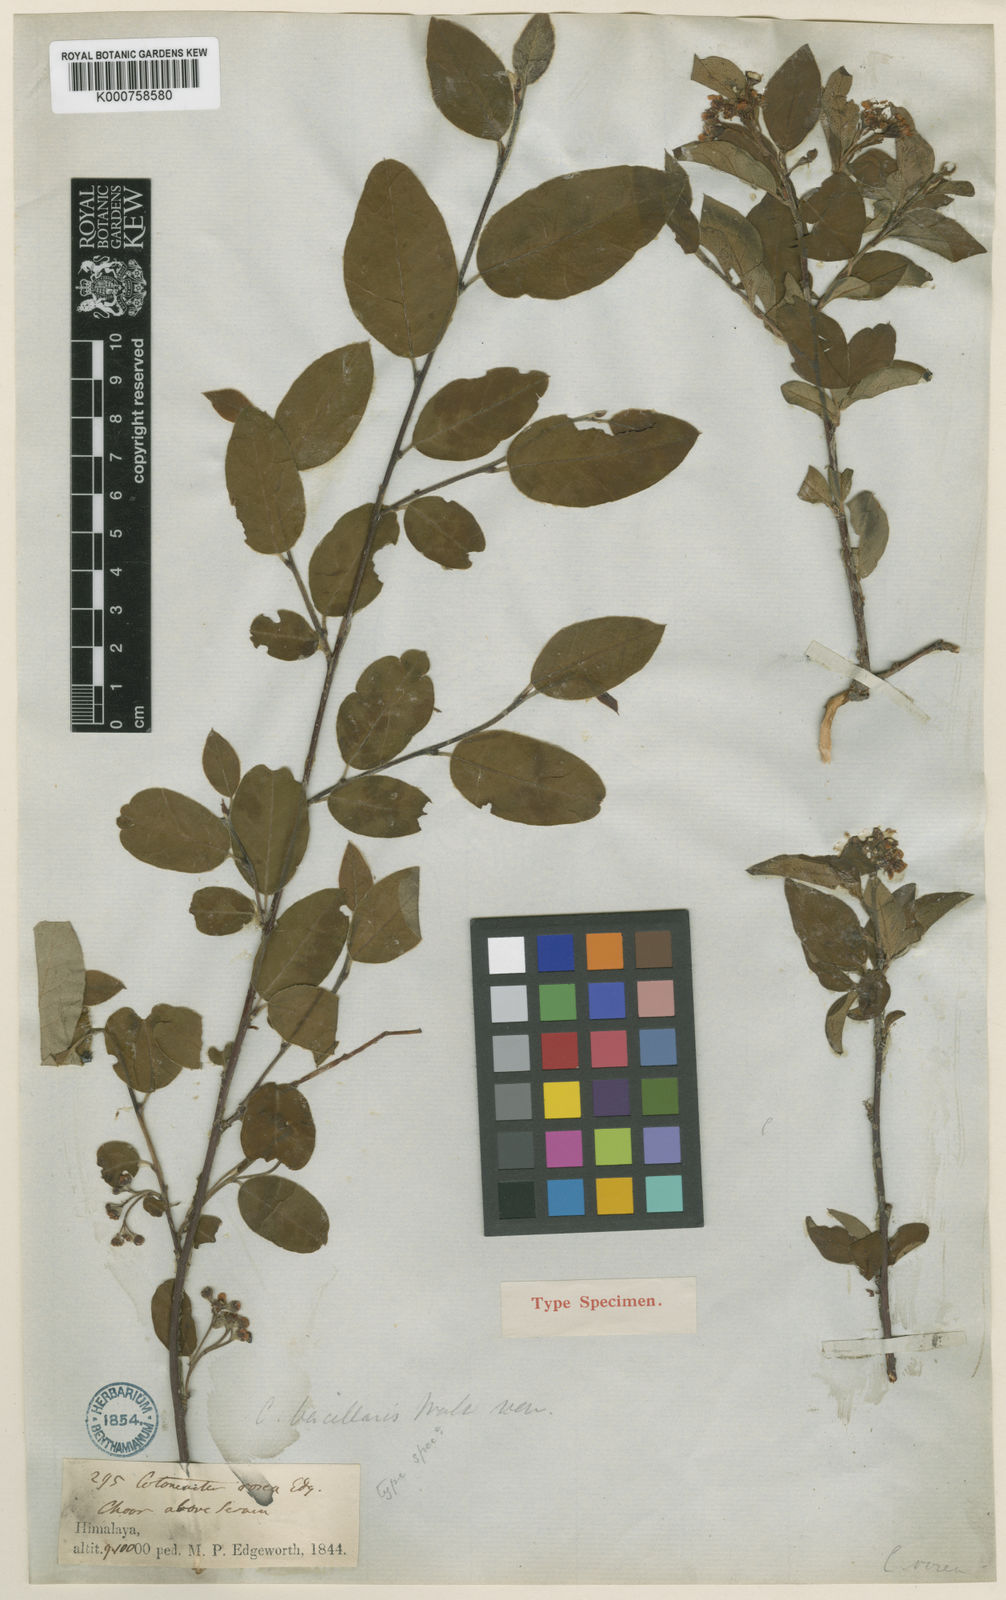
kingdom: Plantae
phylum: Tracheophyta
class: Magnoliopsida
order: Rosales
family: Rosaceae
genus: Cotoneaster
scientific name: Cotoneaster roseus
